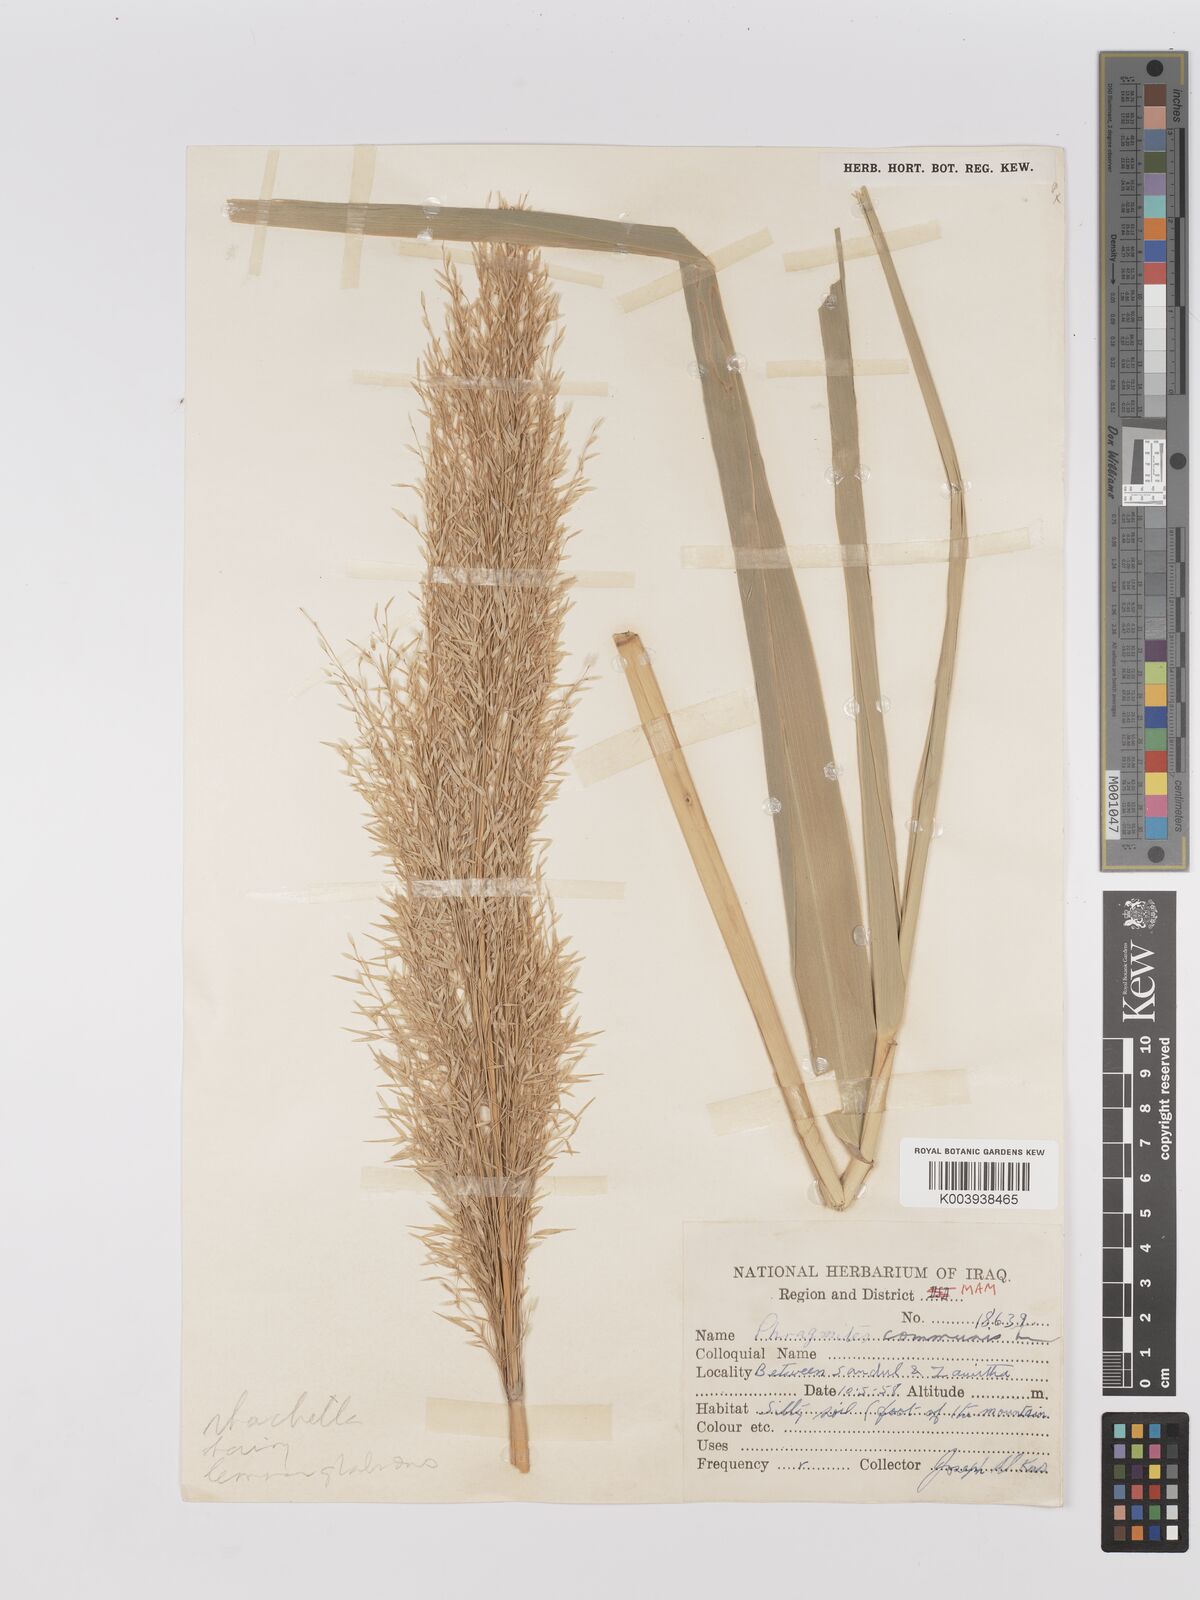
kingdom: Plantae
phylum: Tracheophyta
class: Liliopsida
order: Poales
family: Poaceae
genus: Phragmites
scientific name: Phragmites australis
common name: Common reed
